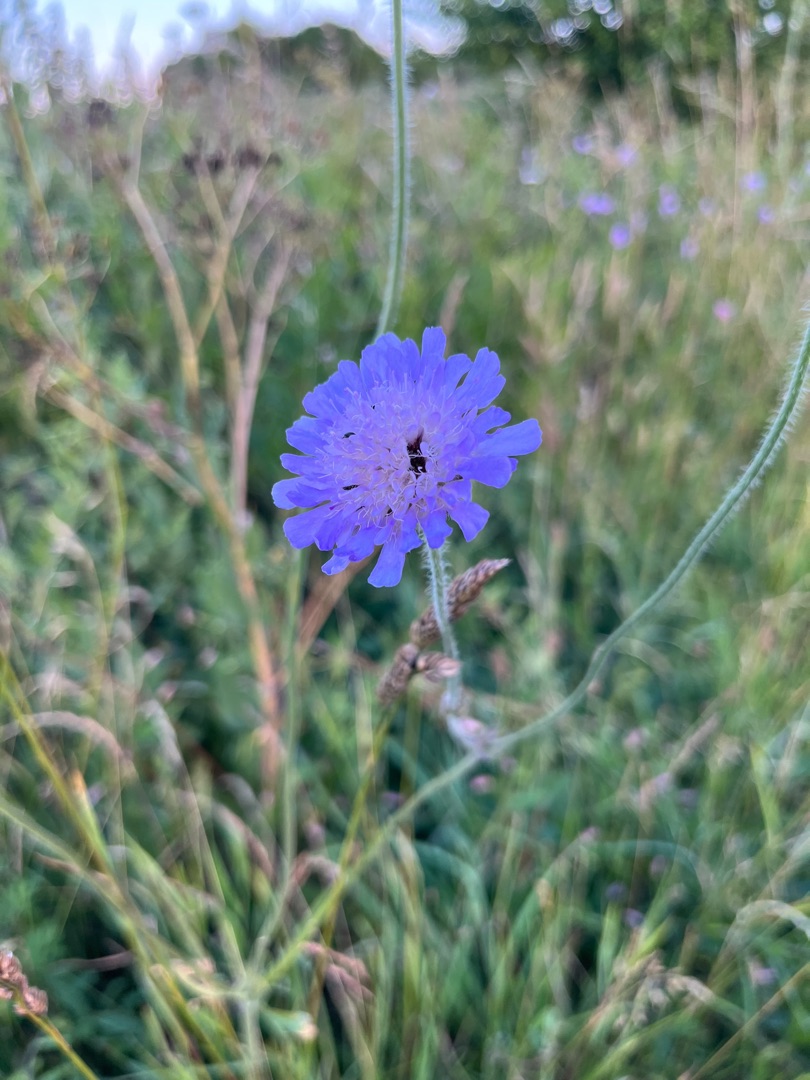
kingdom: Plantae
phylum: Tracheophyta
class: Magnoliopsida
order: Dipsacales
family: Caprifoliaceae
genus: Knautia
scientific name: Knautia arvensis
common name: Blåhat
